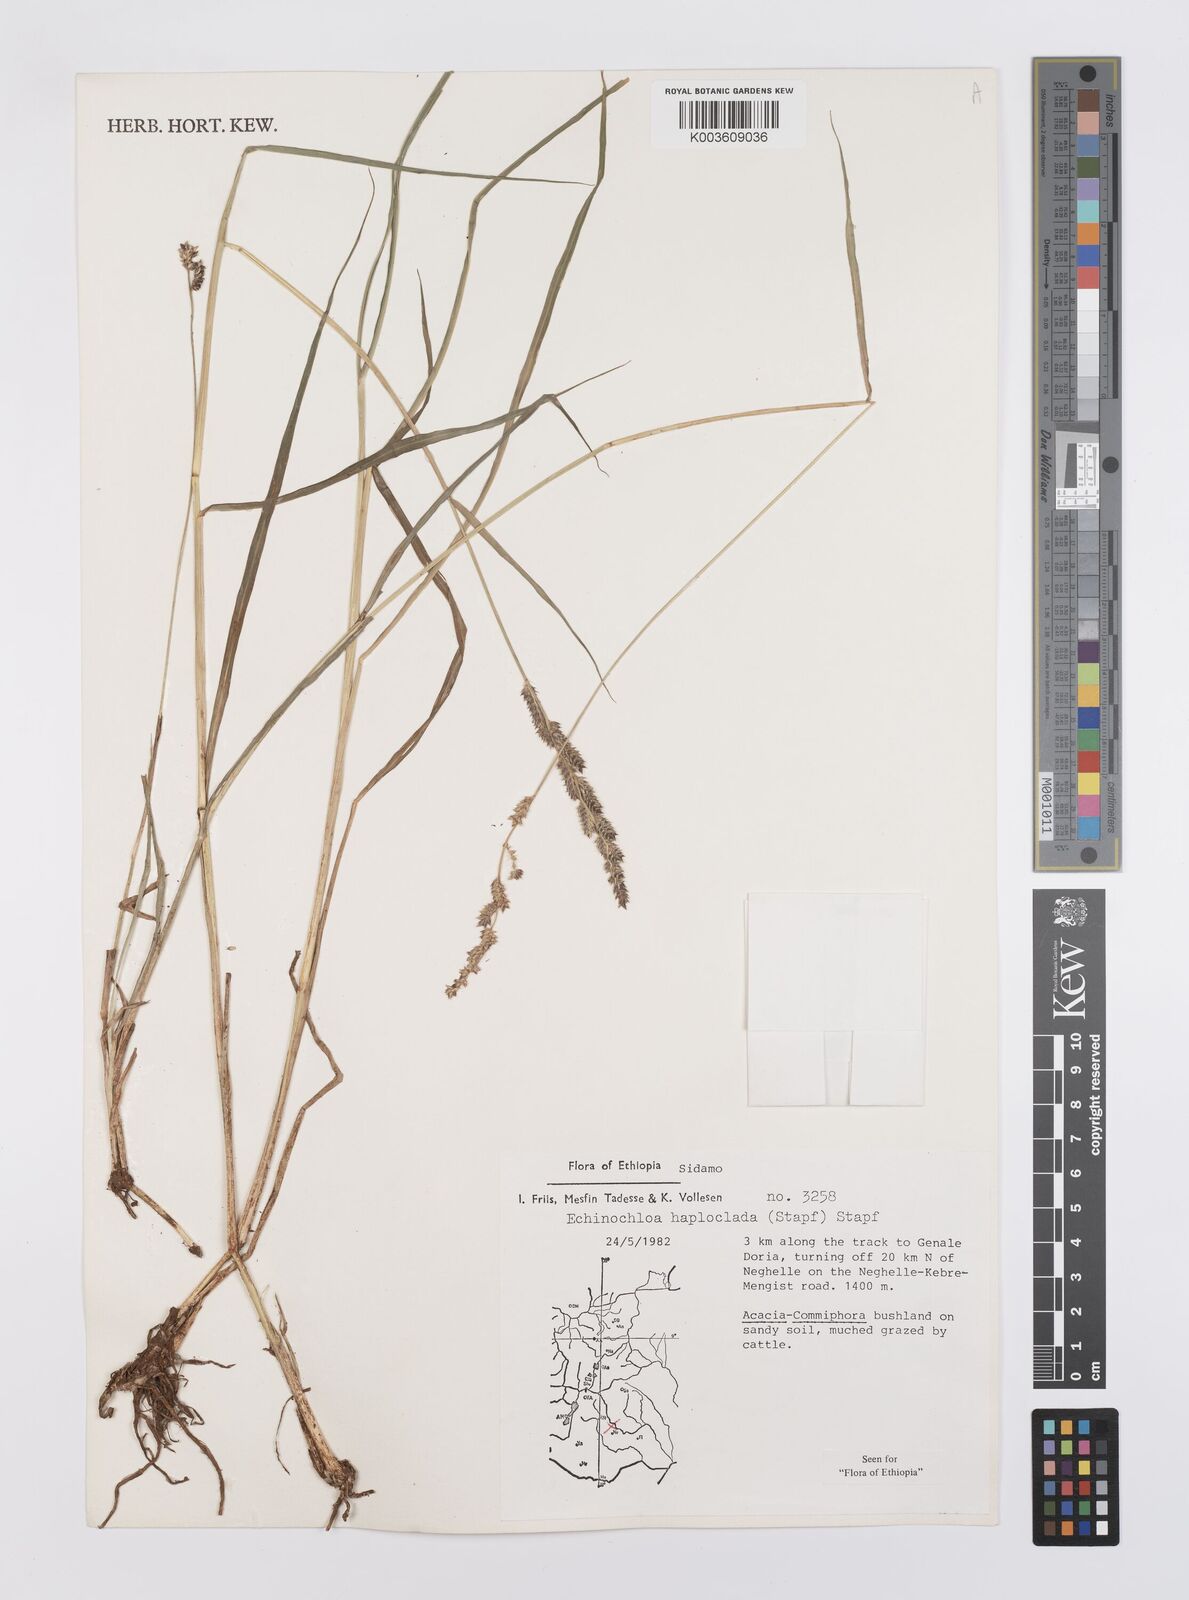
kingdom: Plantae
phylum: Tracheophyta
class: Liliopsida
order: Poales
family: Poaceae
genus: Echinochloa
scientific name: Echinochloa haploclada
